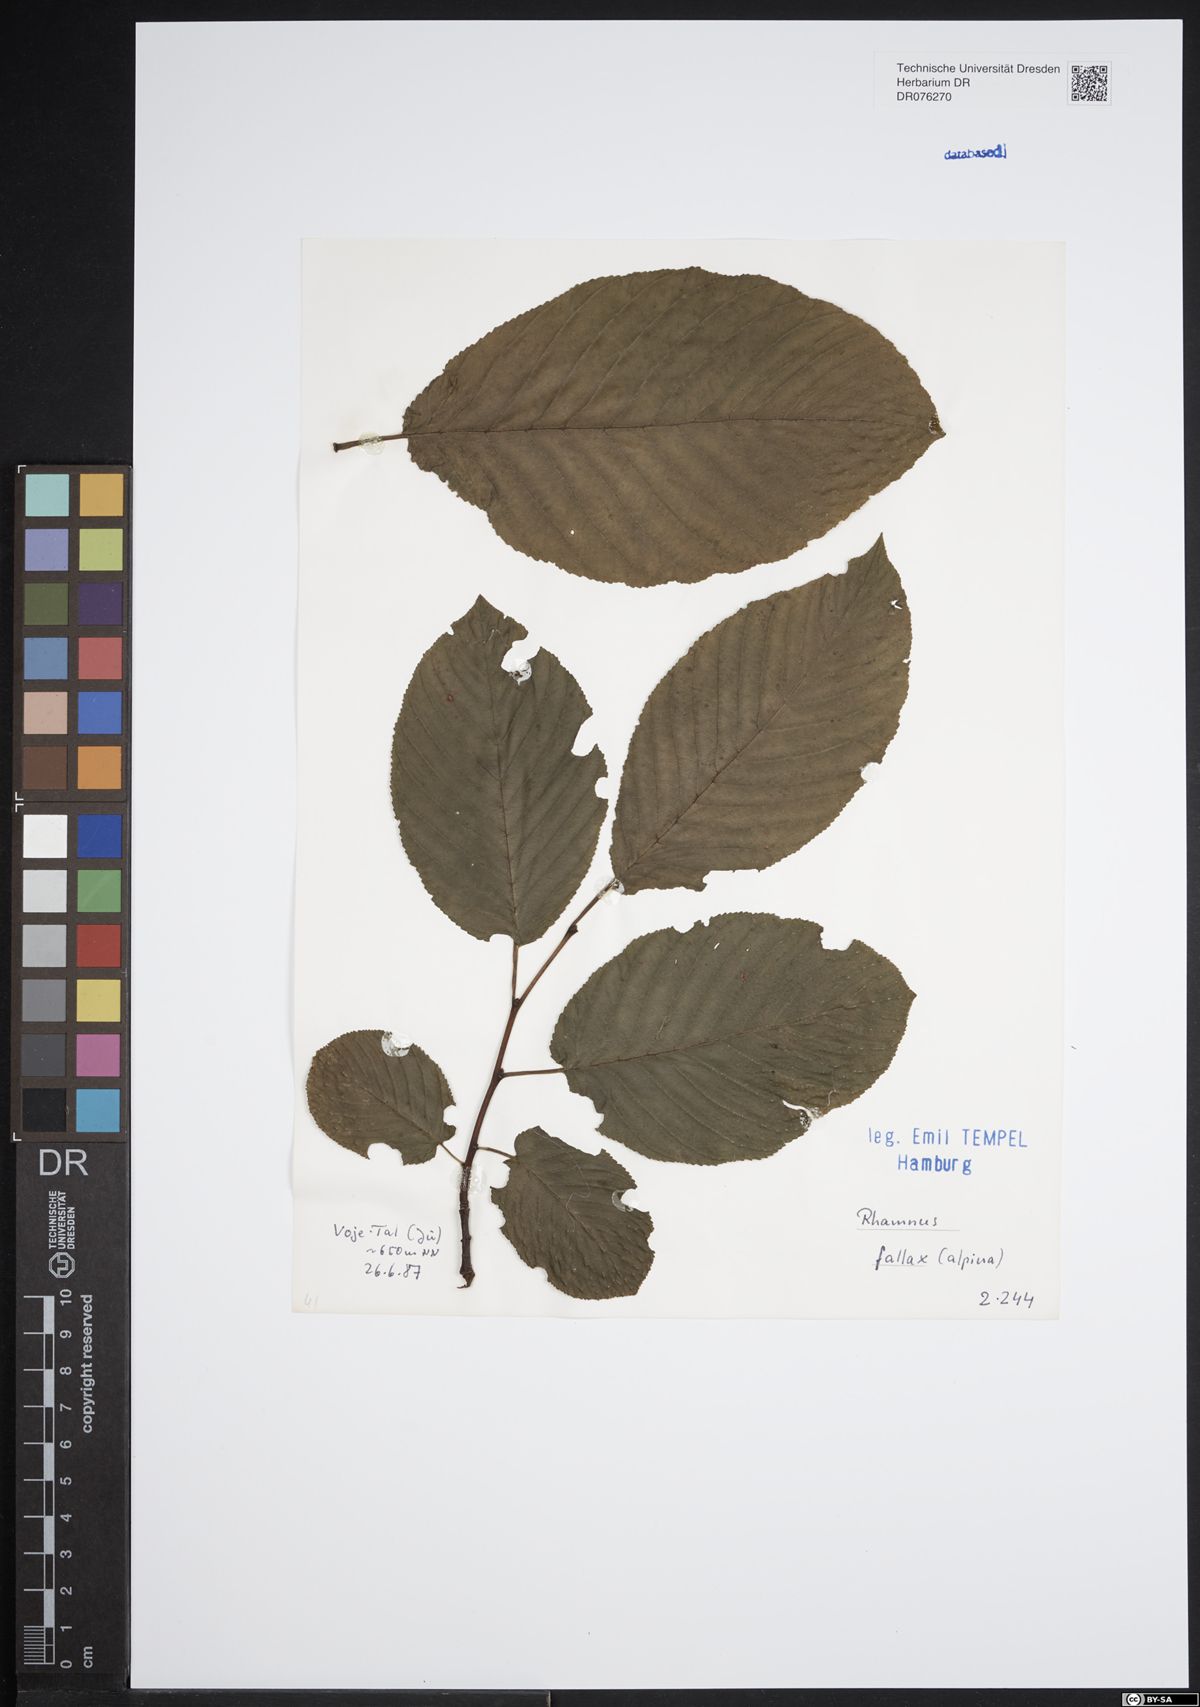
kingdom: Plantae
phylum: Tracheophyta
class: Magnoliopsida
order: Rosales
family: Rhamnaceae
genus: Atadinus
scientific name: Atadinus fallax
